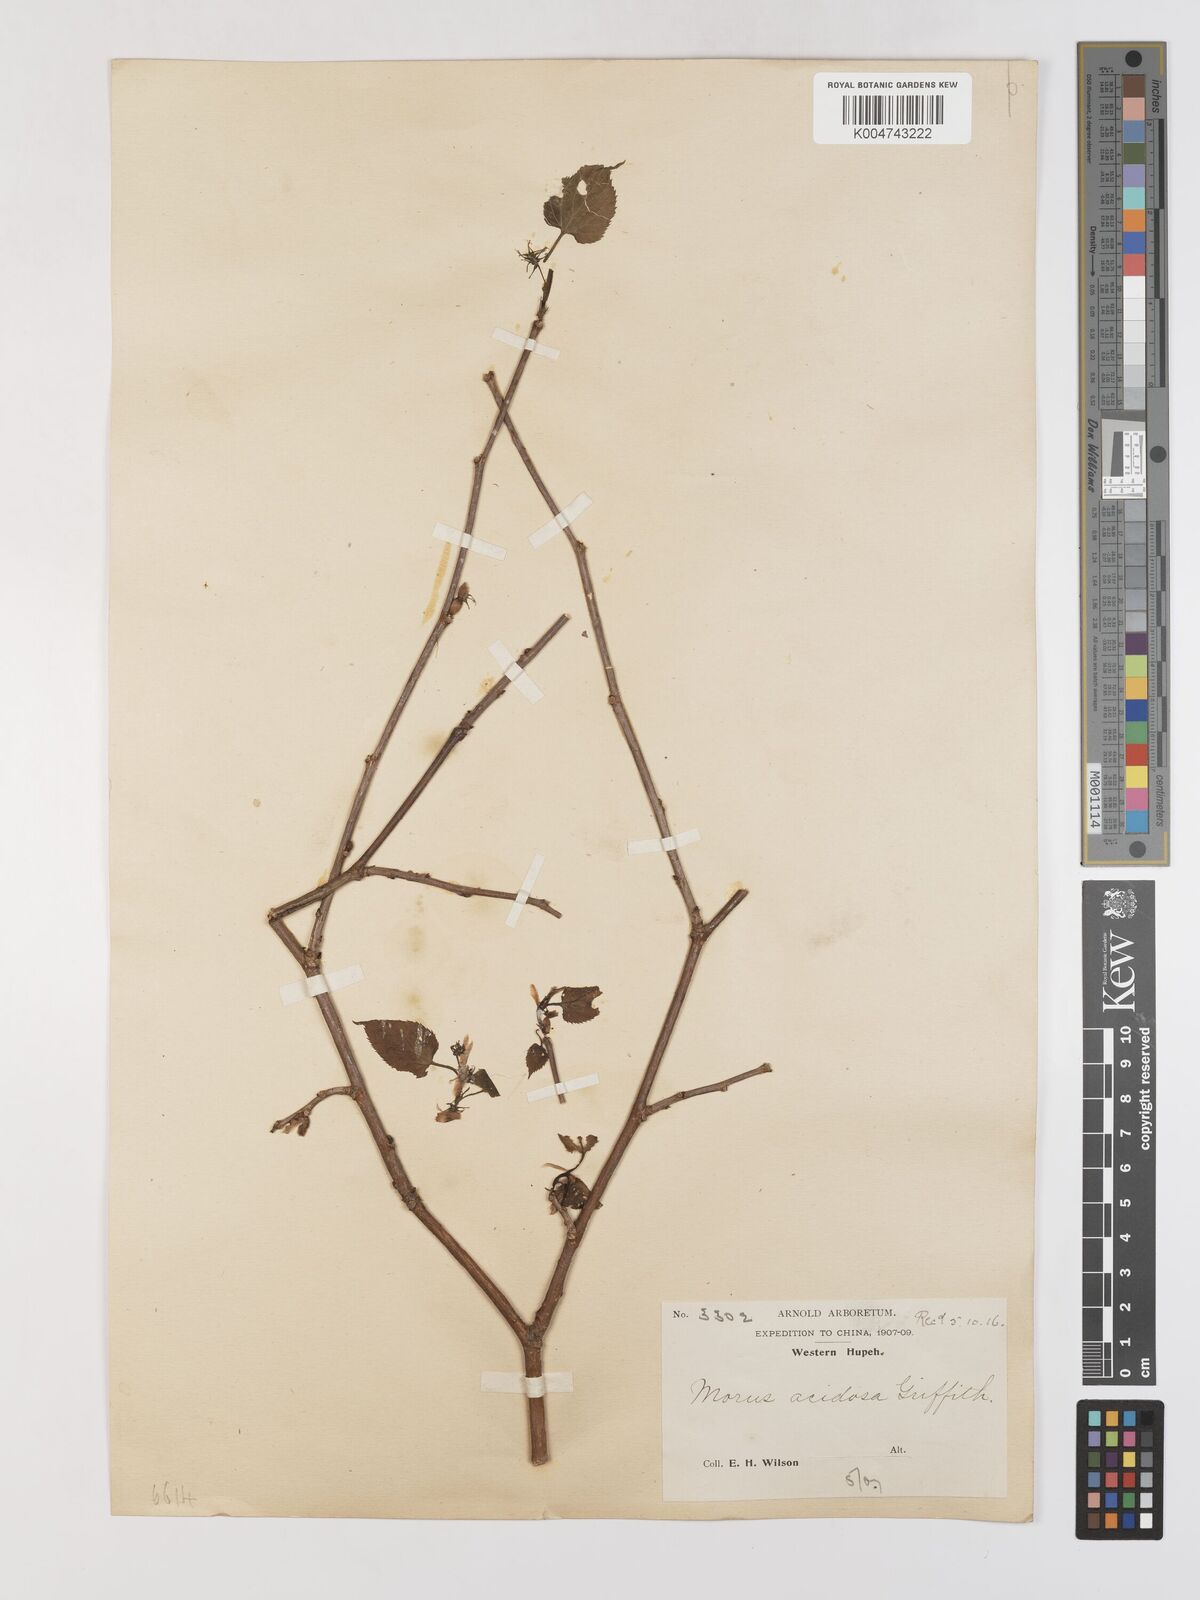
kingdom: Plantae
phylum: Tracheophyta
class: Magnoliopsida
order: Rosales
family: Moraceae
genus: Morus
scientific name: Morus indica
